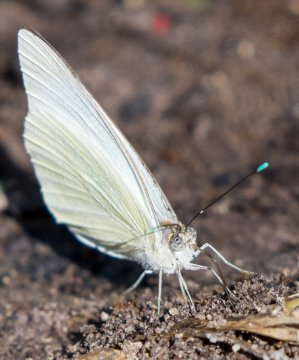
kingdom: Animalia
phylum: Arthropoda
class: Insecta
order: Lepidoptera
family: Pieridae
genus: Ascia
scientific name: Ascia monuste
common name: Great Southern White
